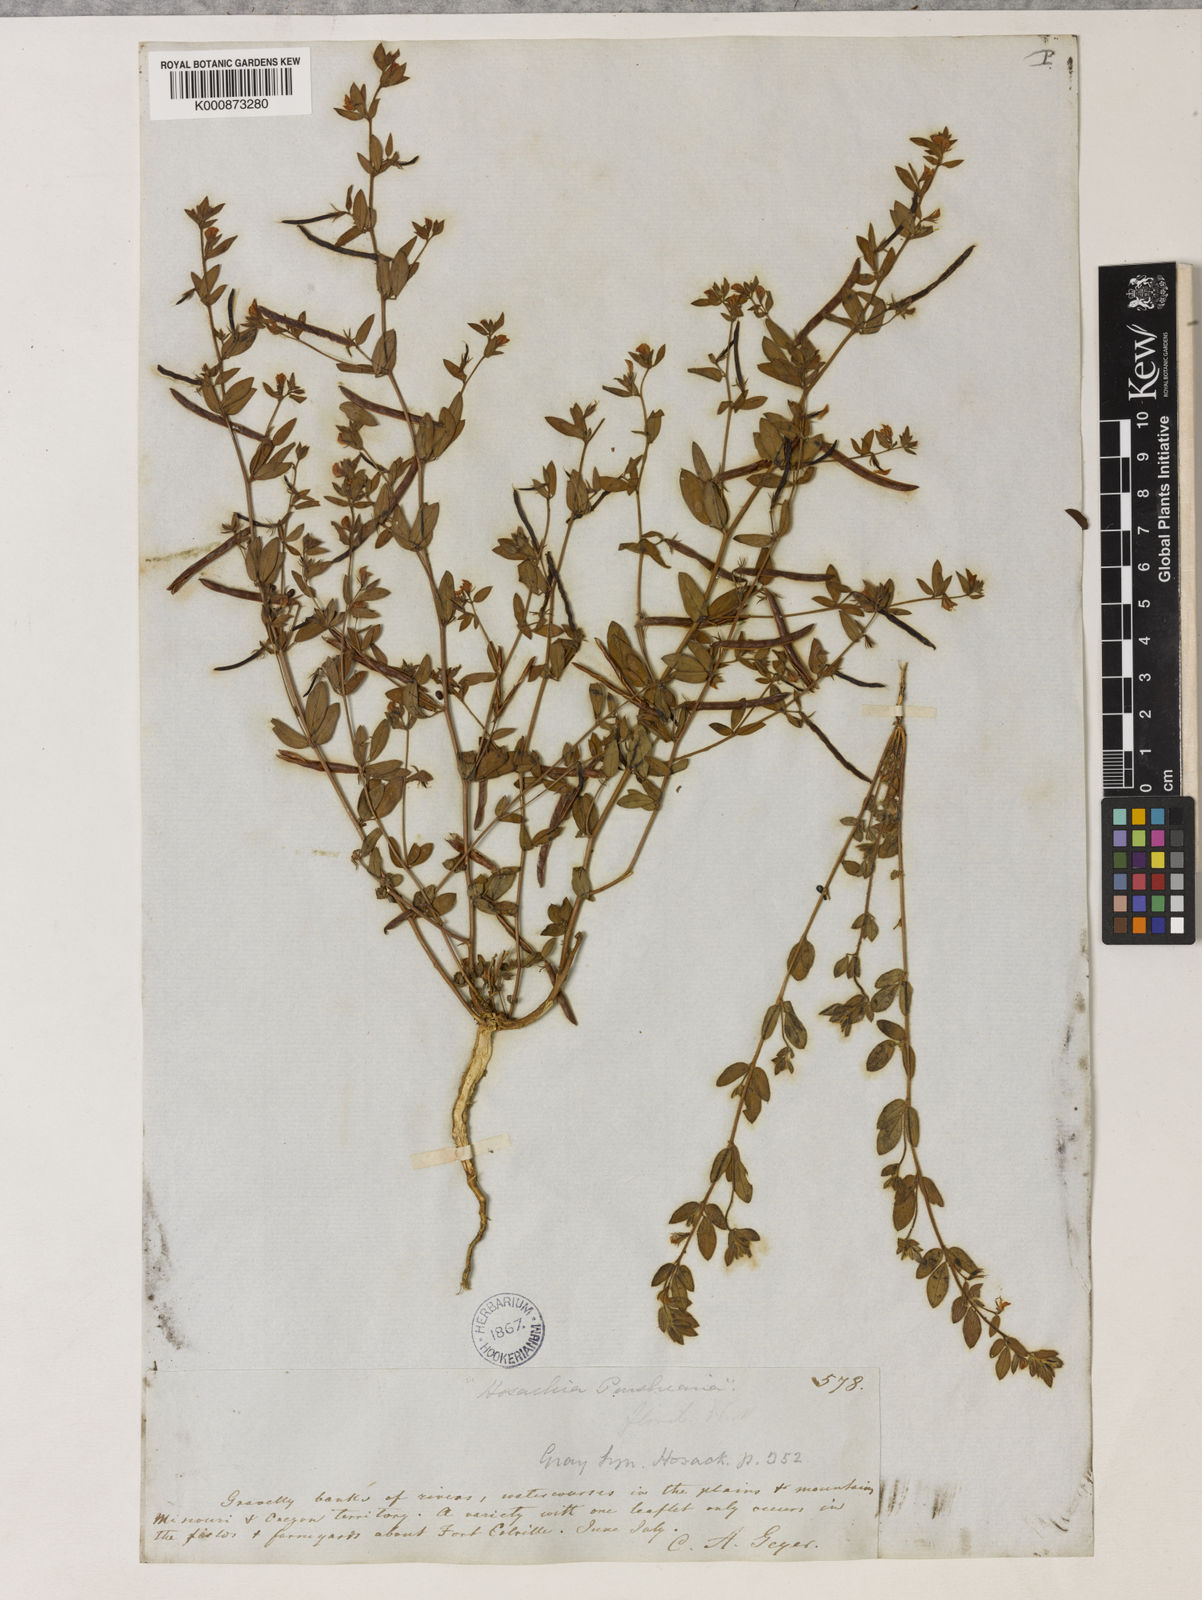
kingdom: Plantae
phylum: Tracheophyta
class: Magnoliopsida
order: Fabales
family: Fabaceae
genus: Collaea
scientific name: Collaea speciosa
